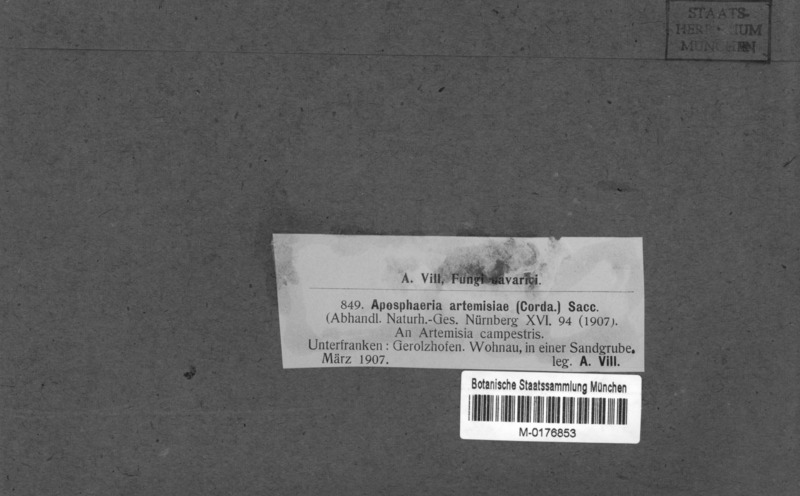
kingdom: Fungi
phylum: Ascomycota
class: Dothideomycetes
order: Pleosporales
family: Melanommataceae
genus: Aposphaeria
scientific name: Aposphaeria
